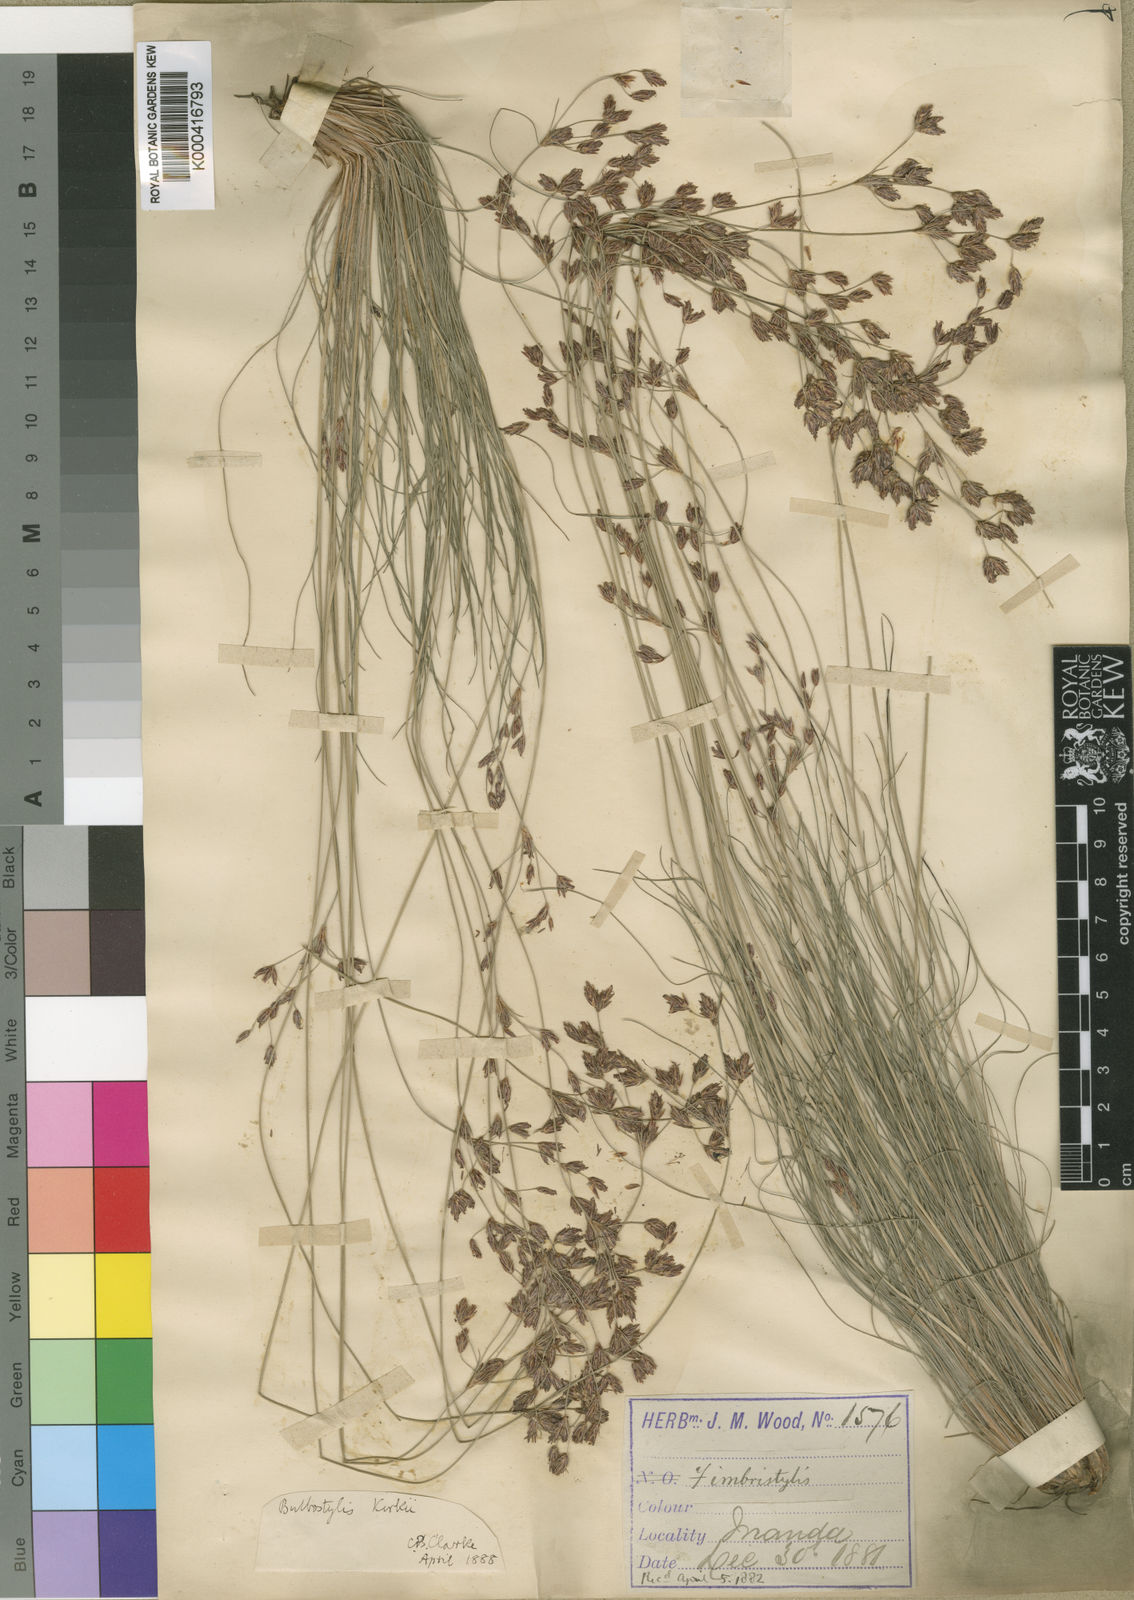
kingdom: Plantae
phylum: Tracheophyta
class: Liliopsida
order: Poales
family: Cyperaceae
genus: Bulbostylis
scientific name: Bulbostylis contexta
